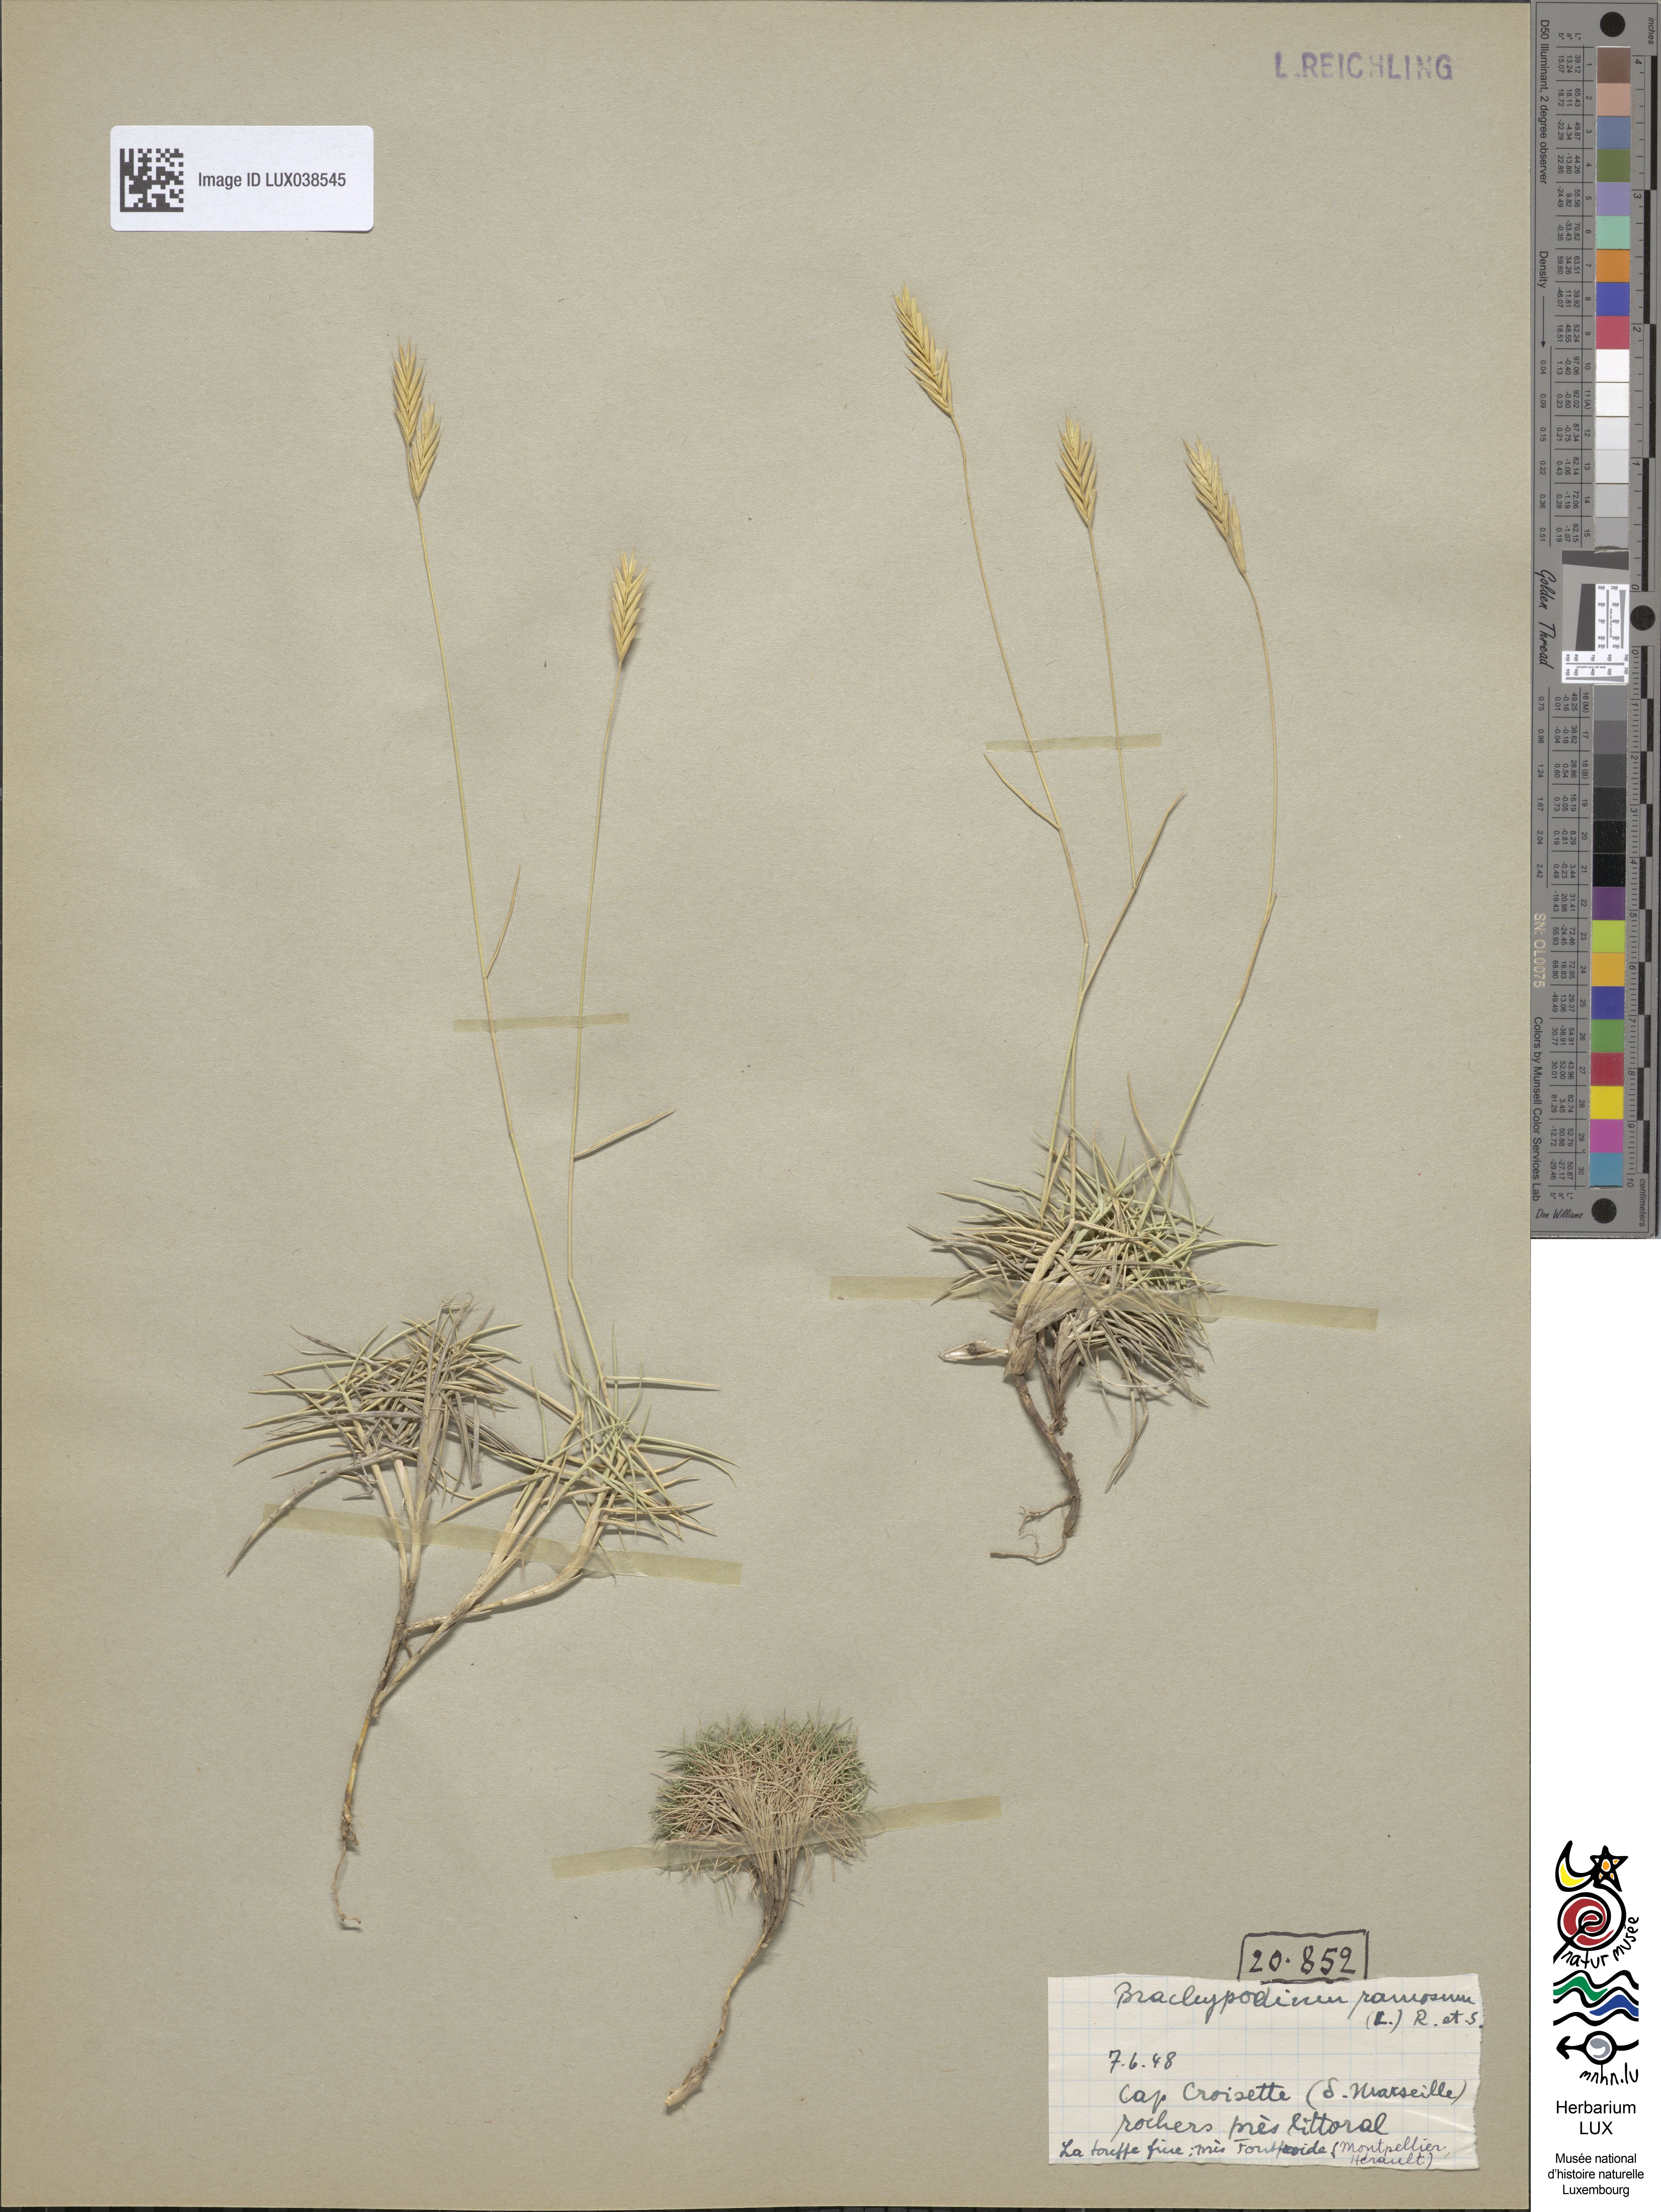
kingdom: Plantae
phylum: Tracheophyta
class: Liliopsida
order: Poales
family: Poaceae
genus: Brachypodium
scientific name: Brachypodium retusum
